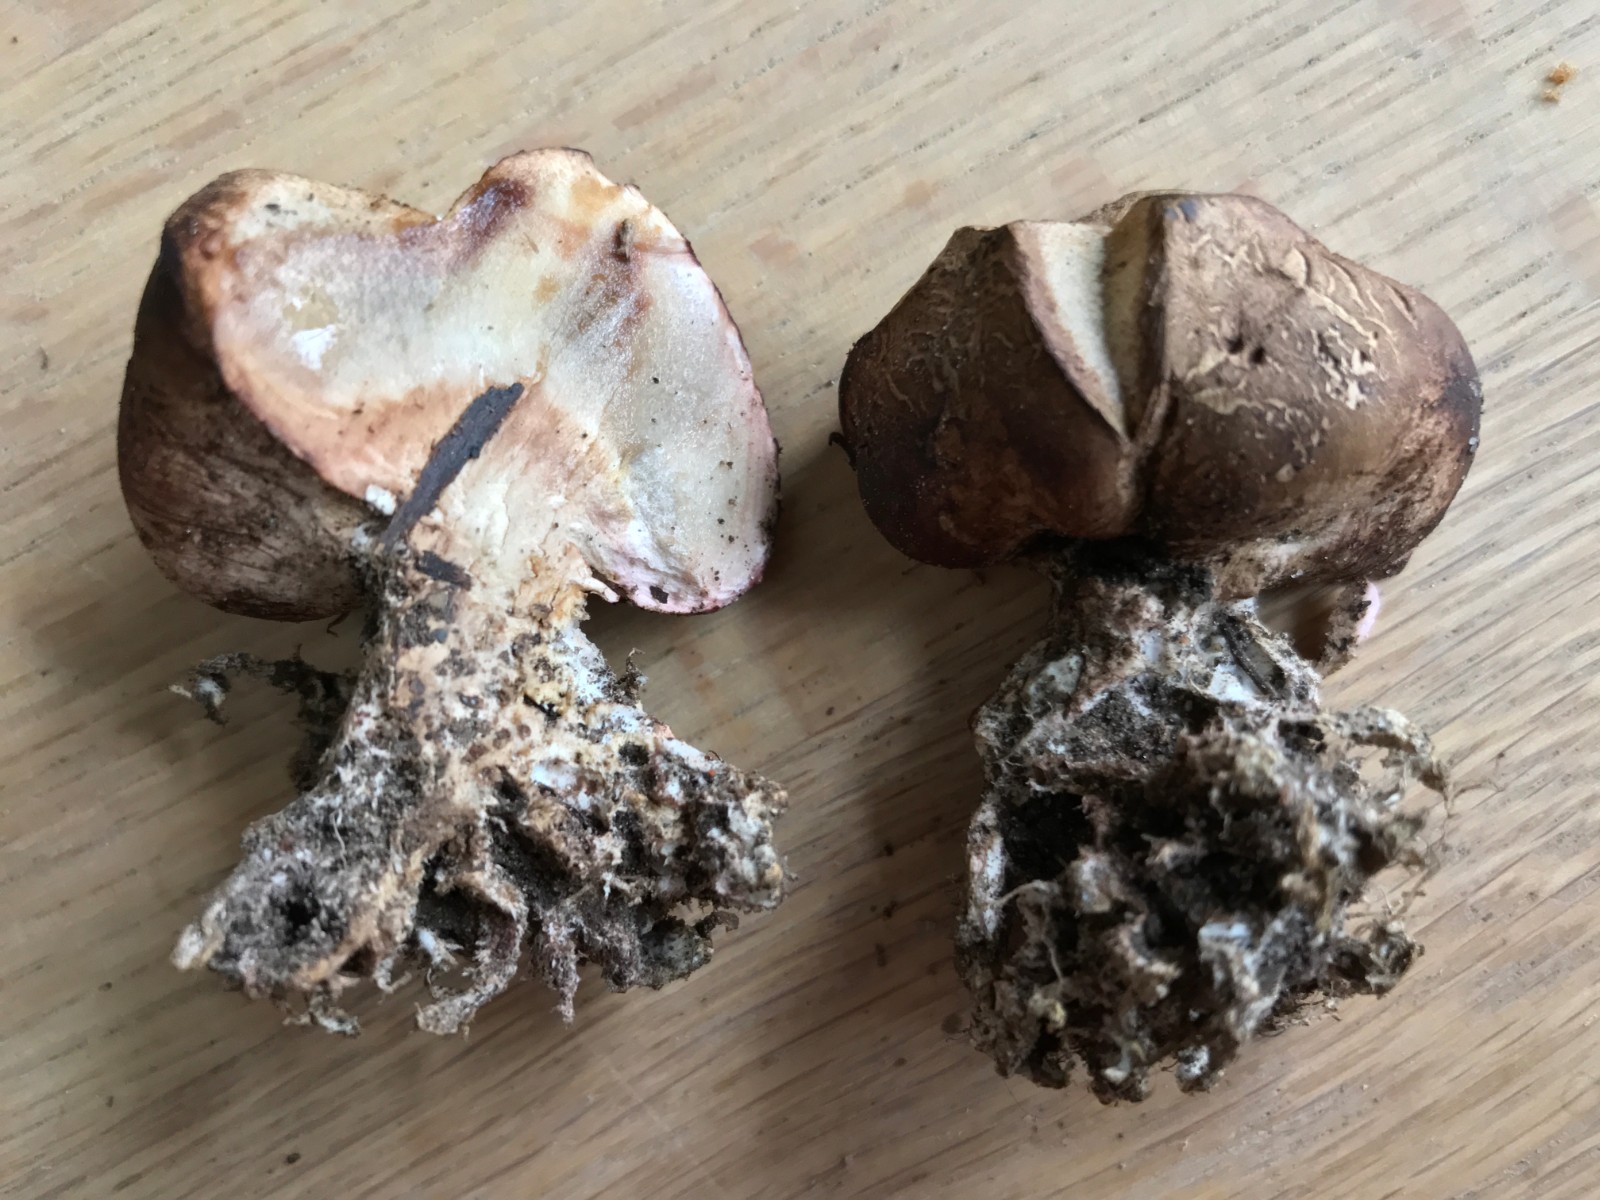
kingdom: Fungi
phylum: Basidiomycota
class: Agaricomycetes
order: Boletales
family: Sclerodermataceae
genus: Scleroderma
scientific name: Scleroderma
